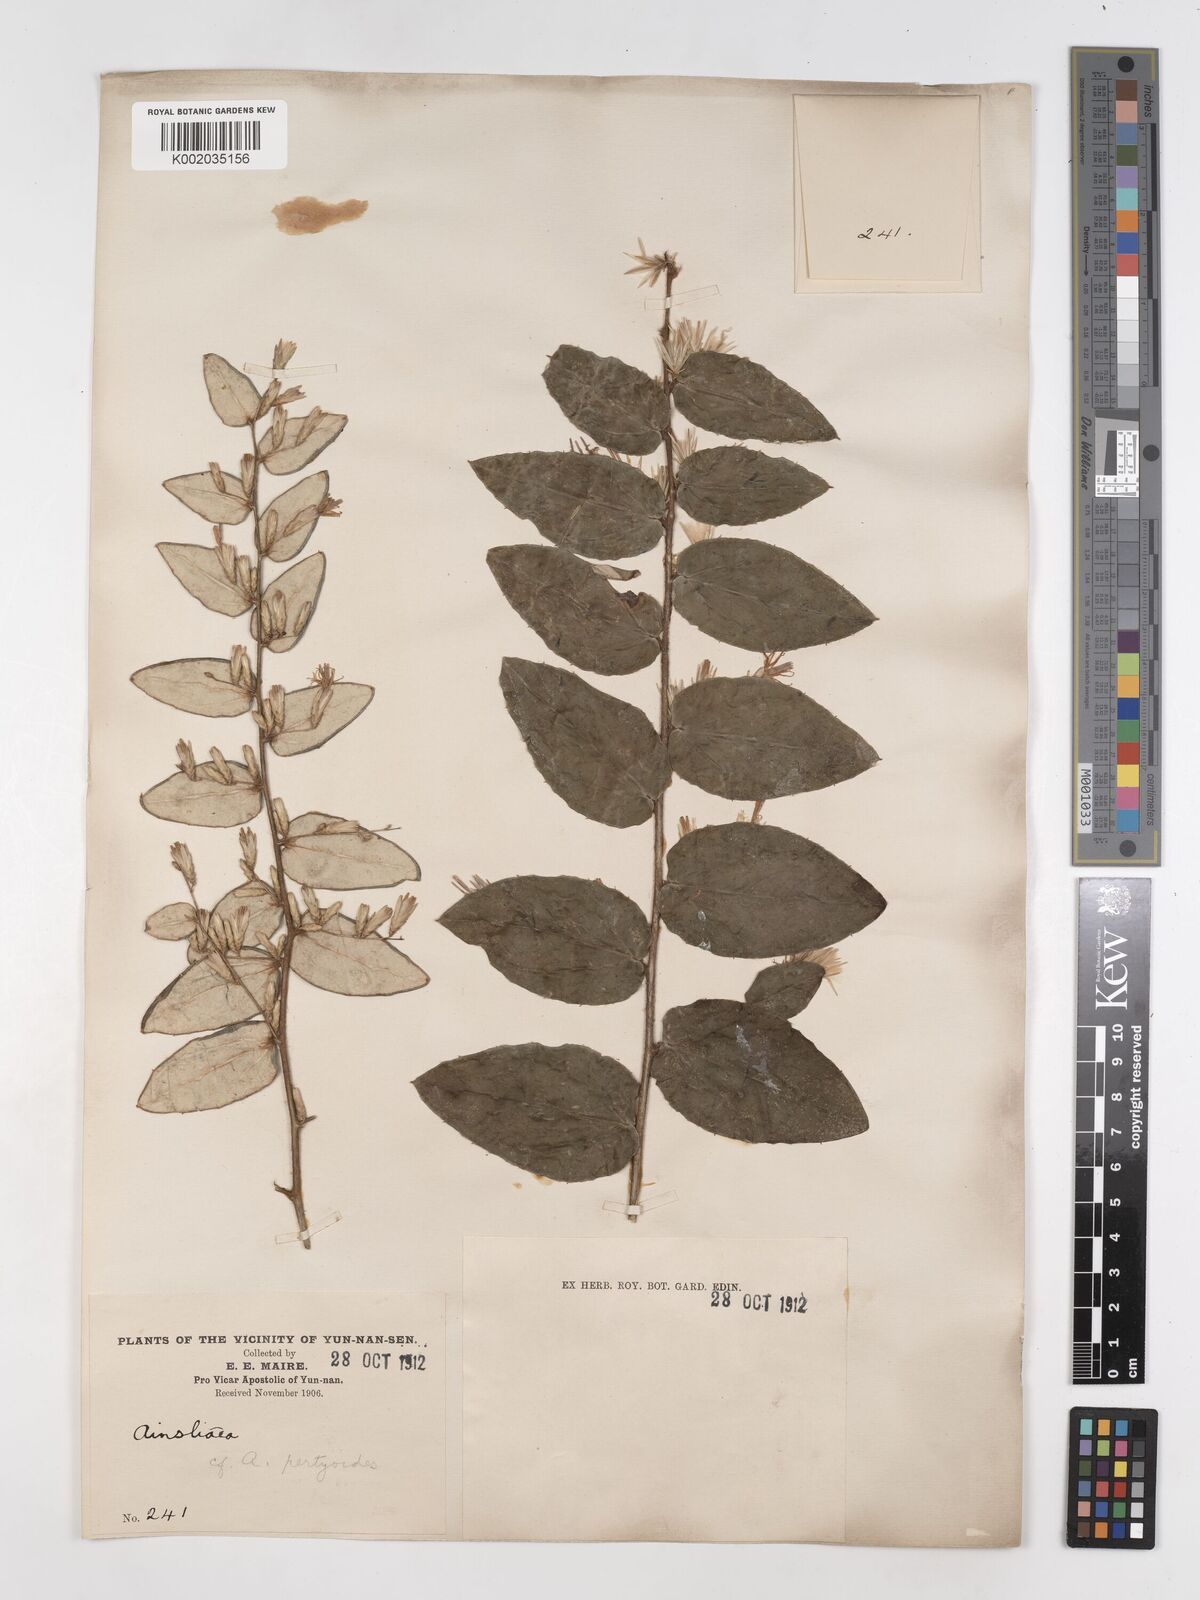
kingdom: Plantae
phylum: Tracheophyta
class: Magnoliopsida
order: Asterales
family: Asteraceae
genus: Ainsliaea
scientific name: Ainsliaea pertyoides
